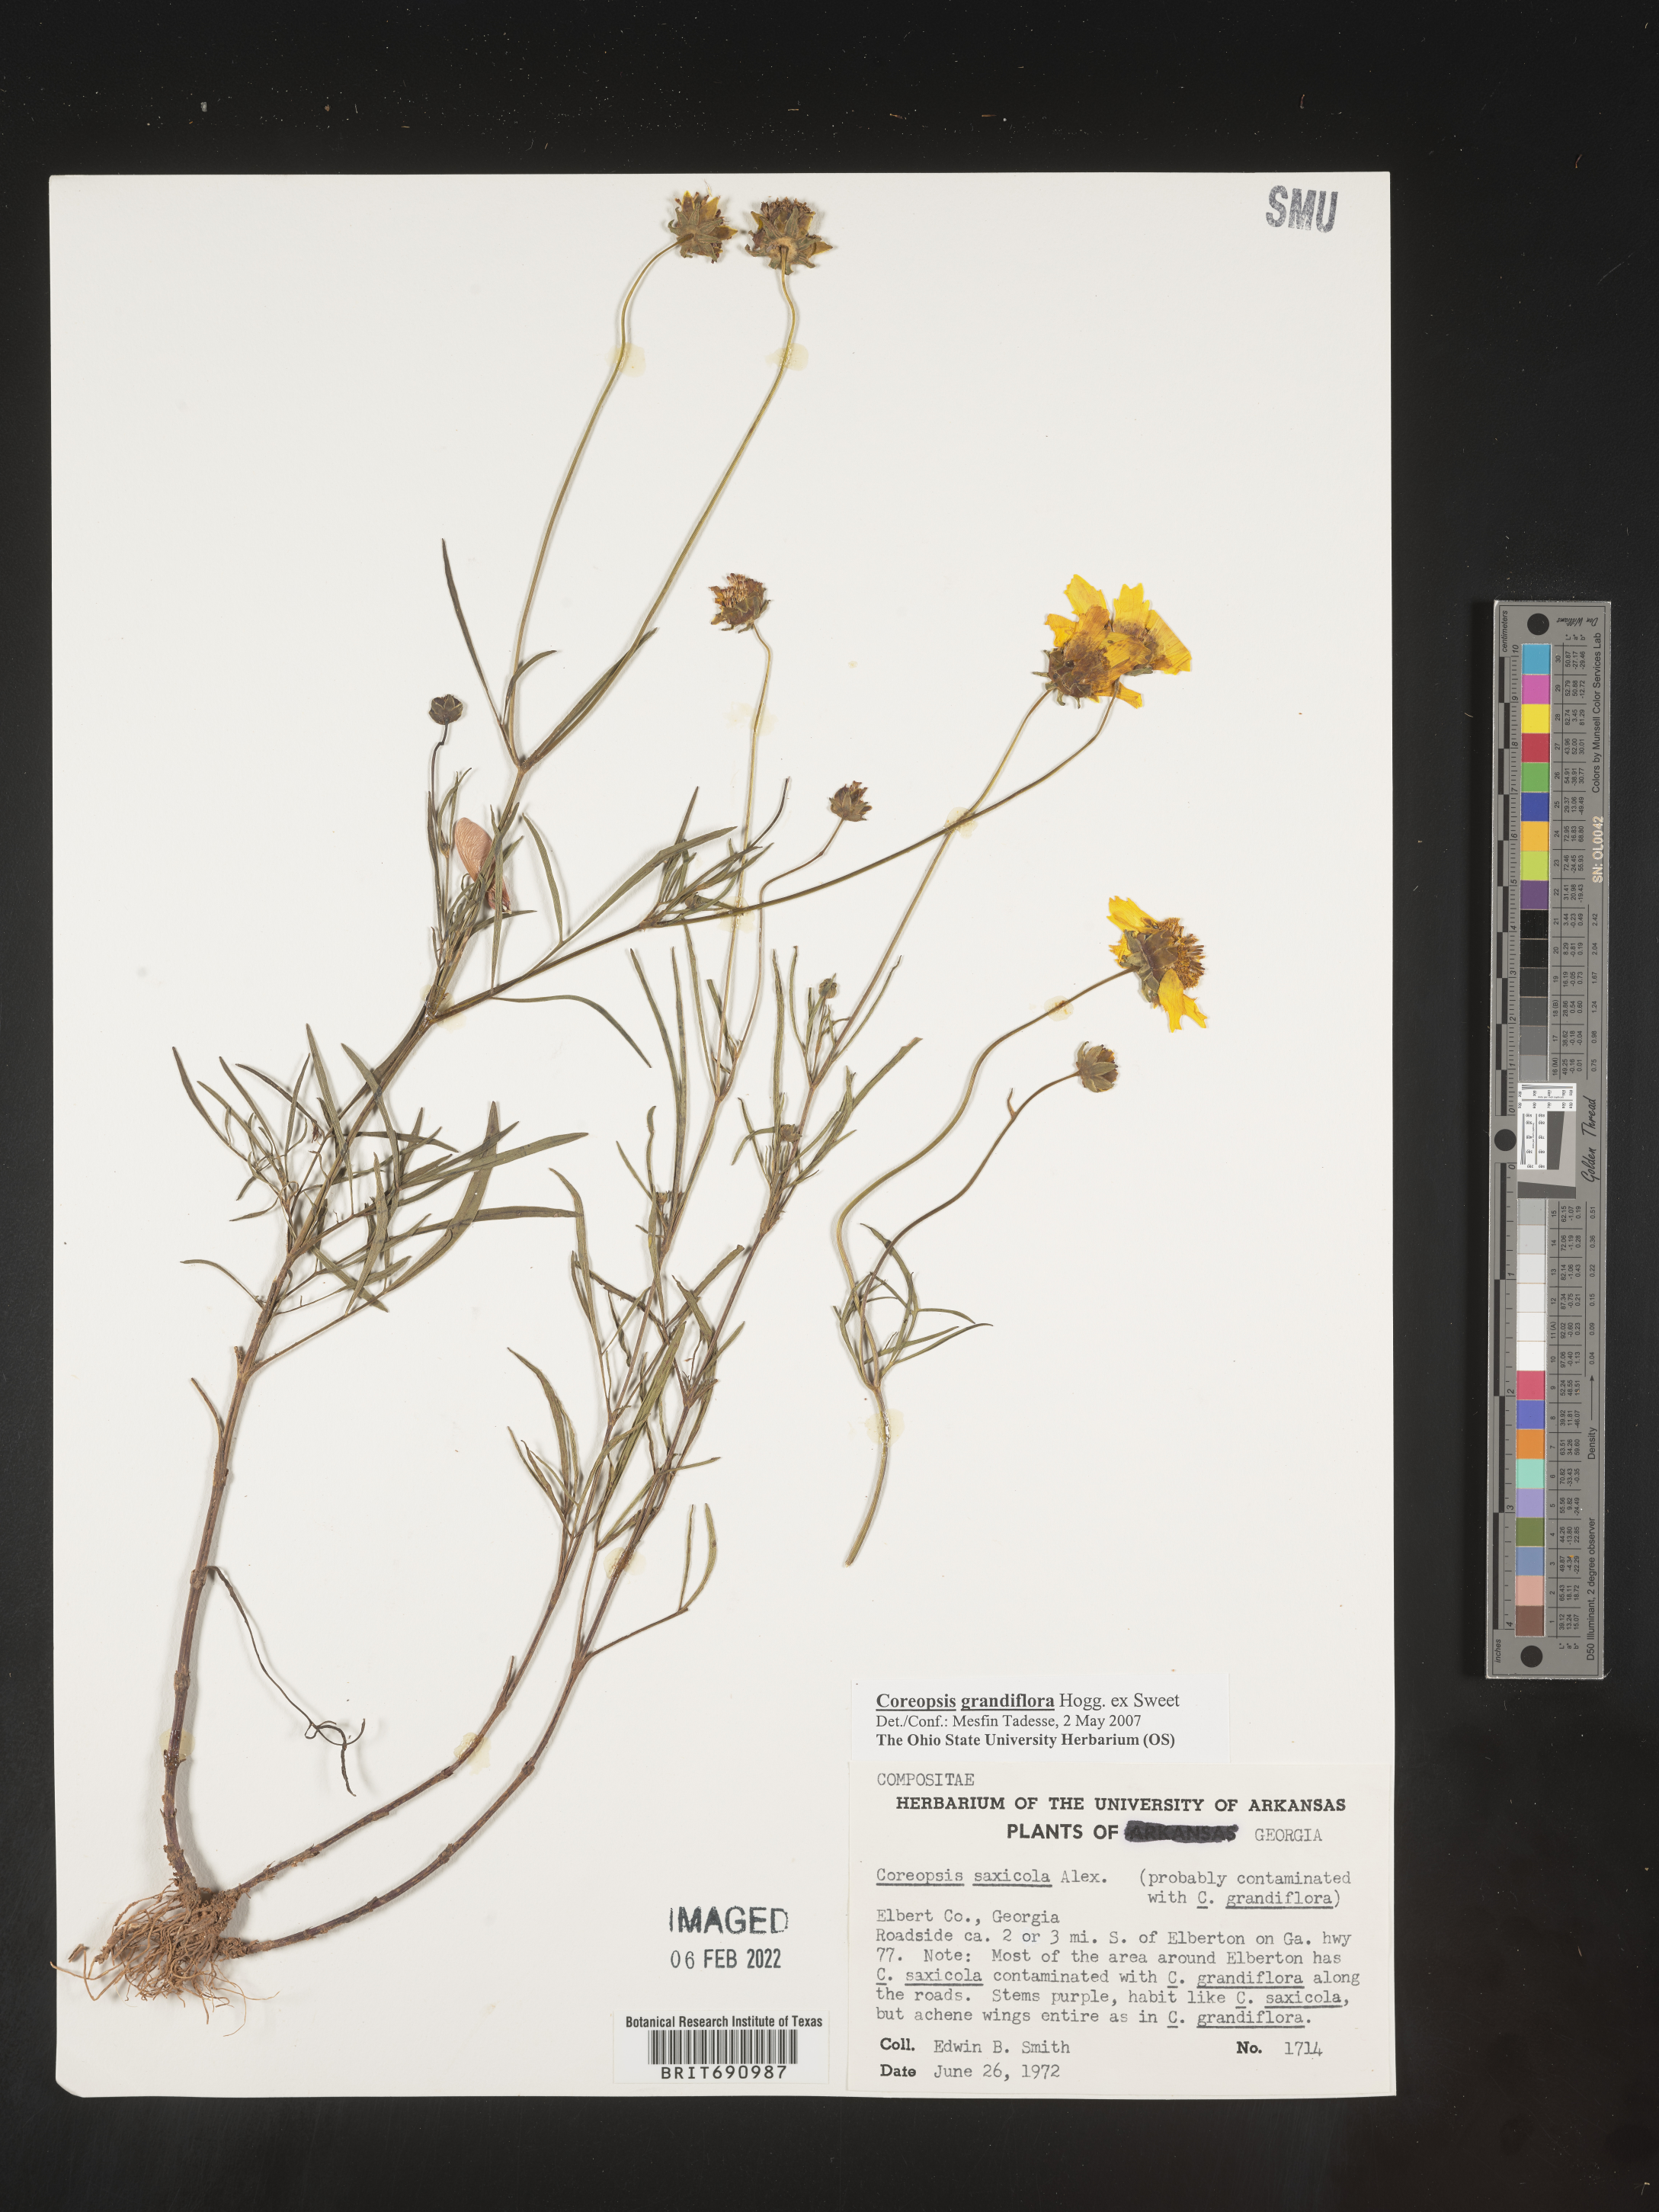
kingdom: Plantae
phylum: Tracheophyta
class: Magnoliopsida
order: Asterales
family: Asteraceae
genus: Coreopsis
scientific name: Coreopsis grandiflora
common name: Large-flowered tickseed
